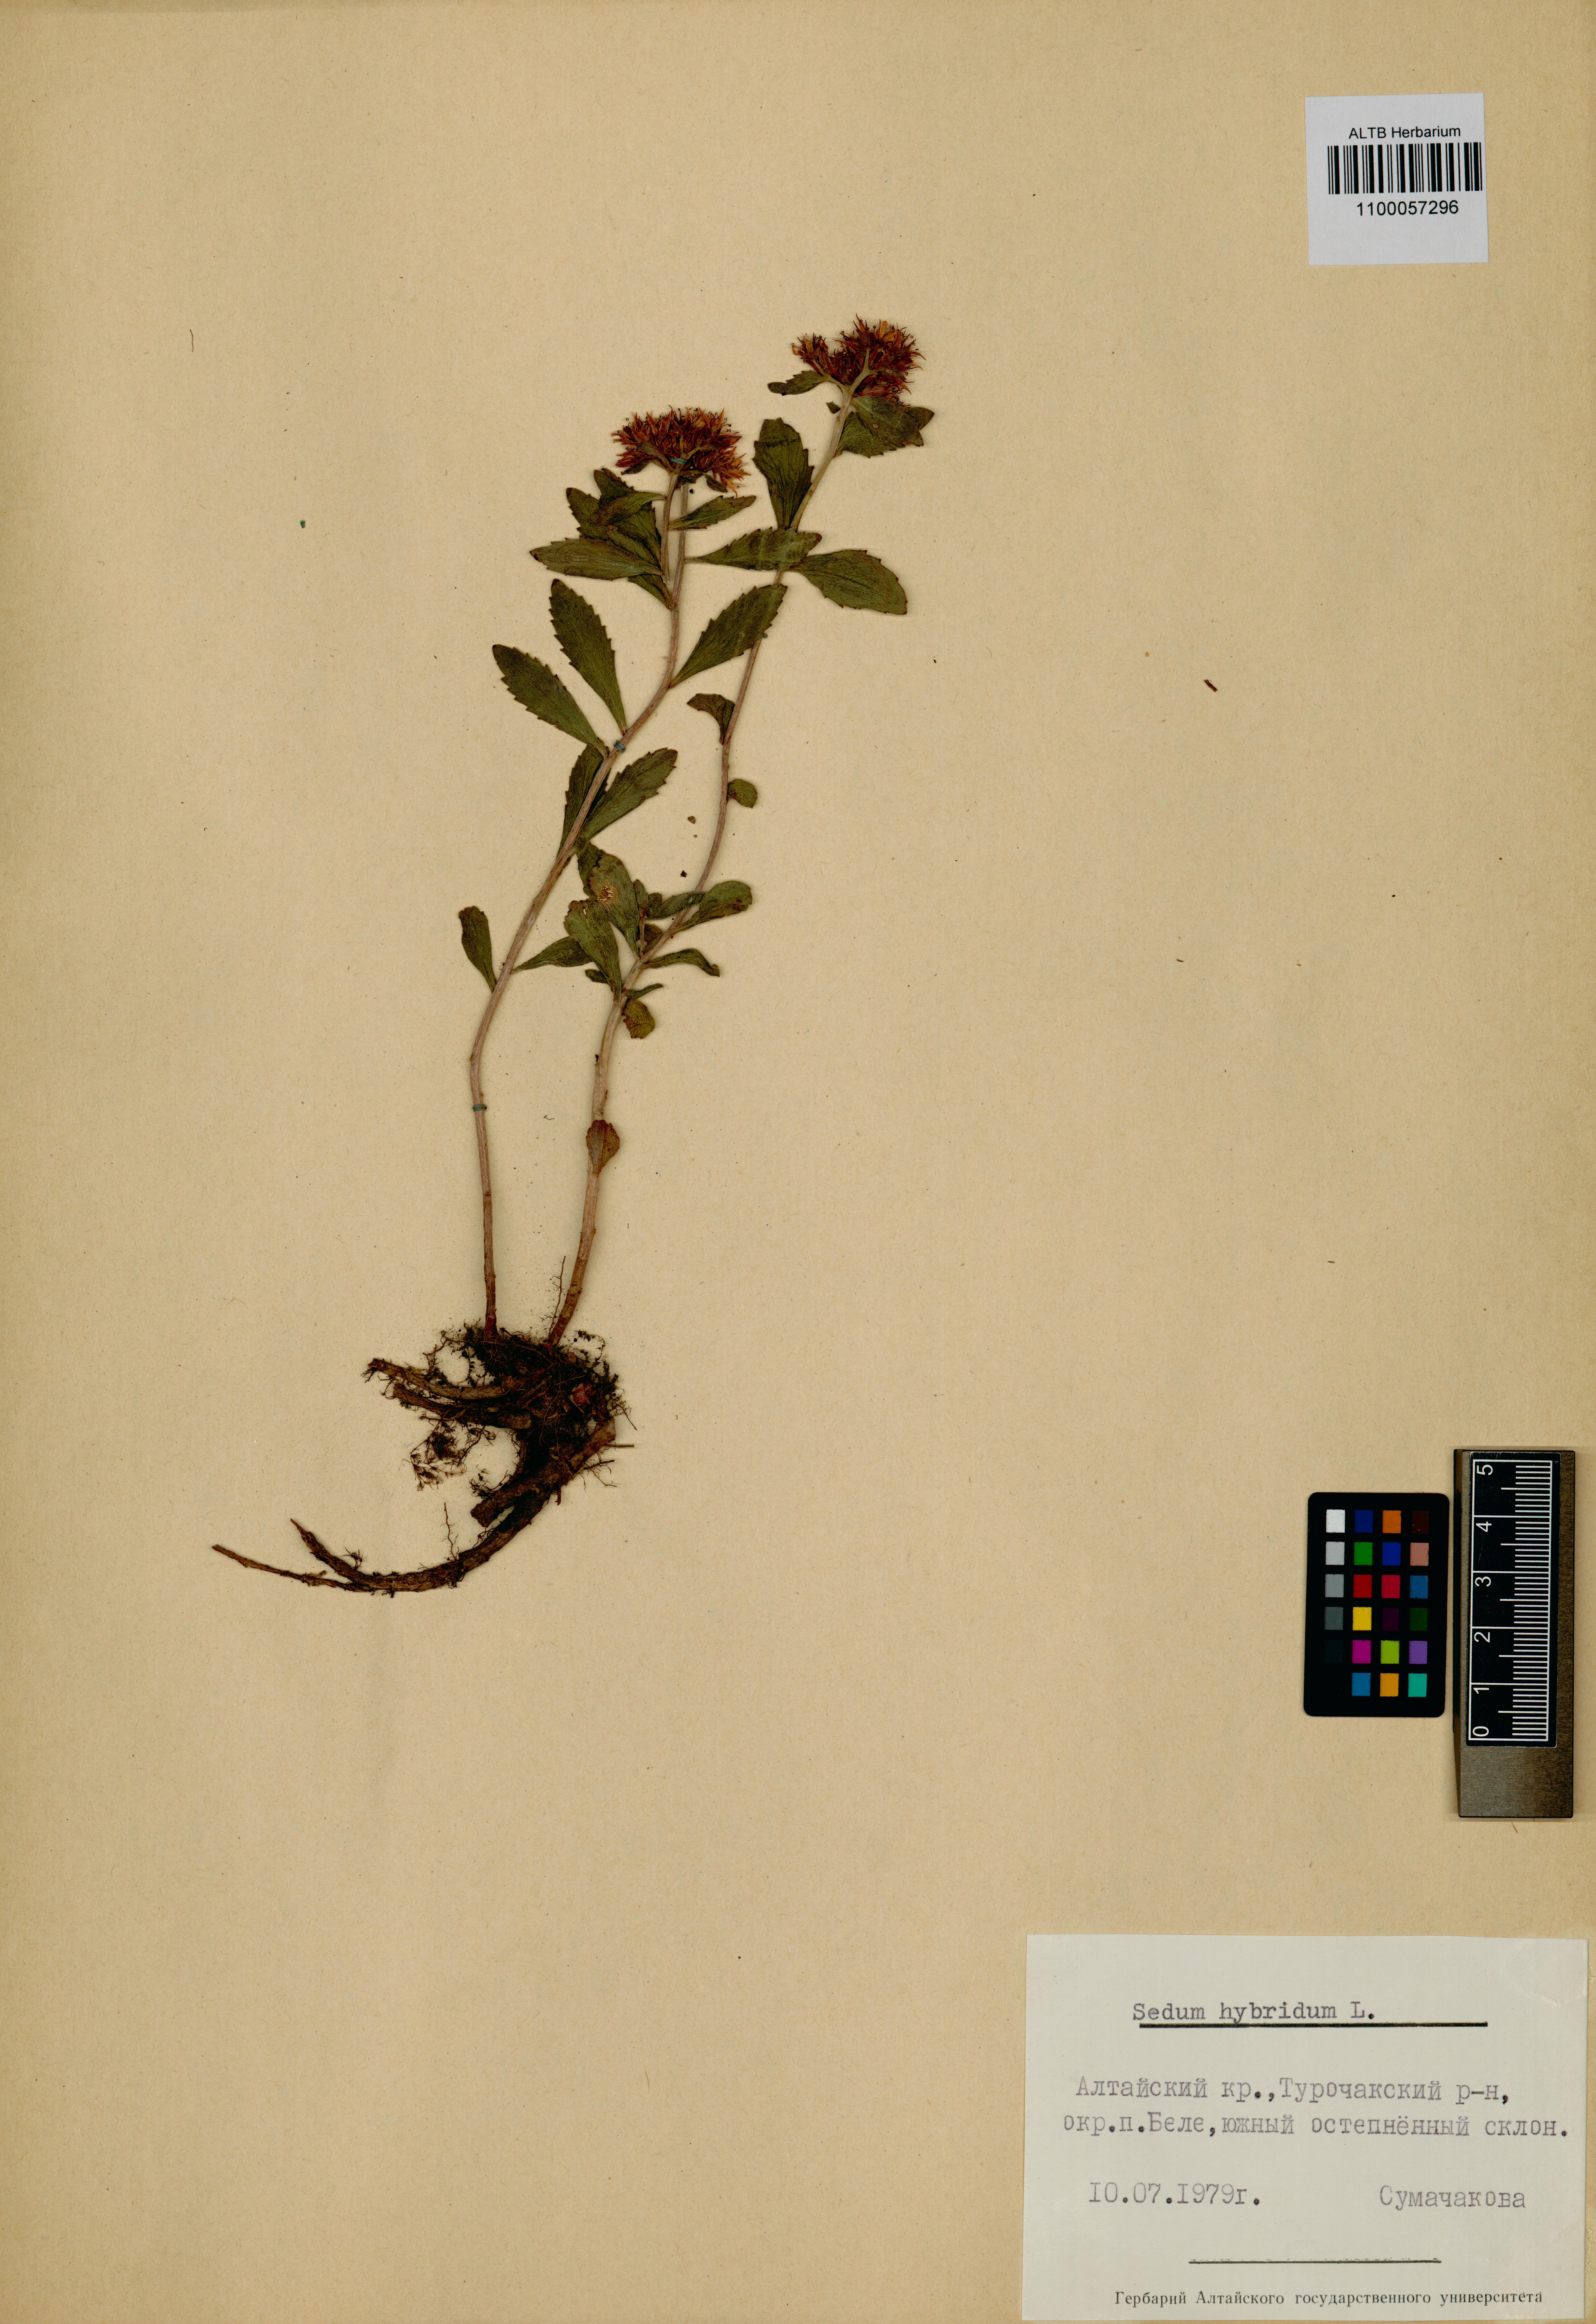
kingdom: Plantae
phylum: Tracheophyta
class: Magnoliopsida
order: Saxifragales
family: Crassulaceae
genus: Phedimus
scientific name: Phedimus hybridus
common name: Hybrid stonecrop
